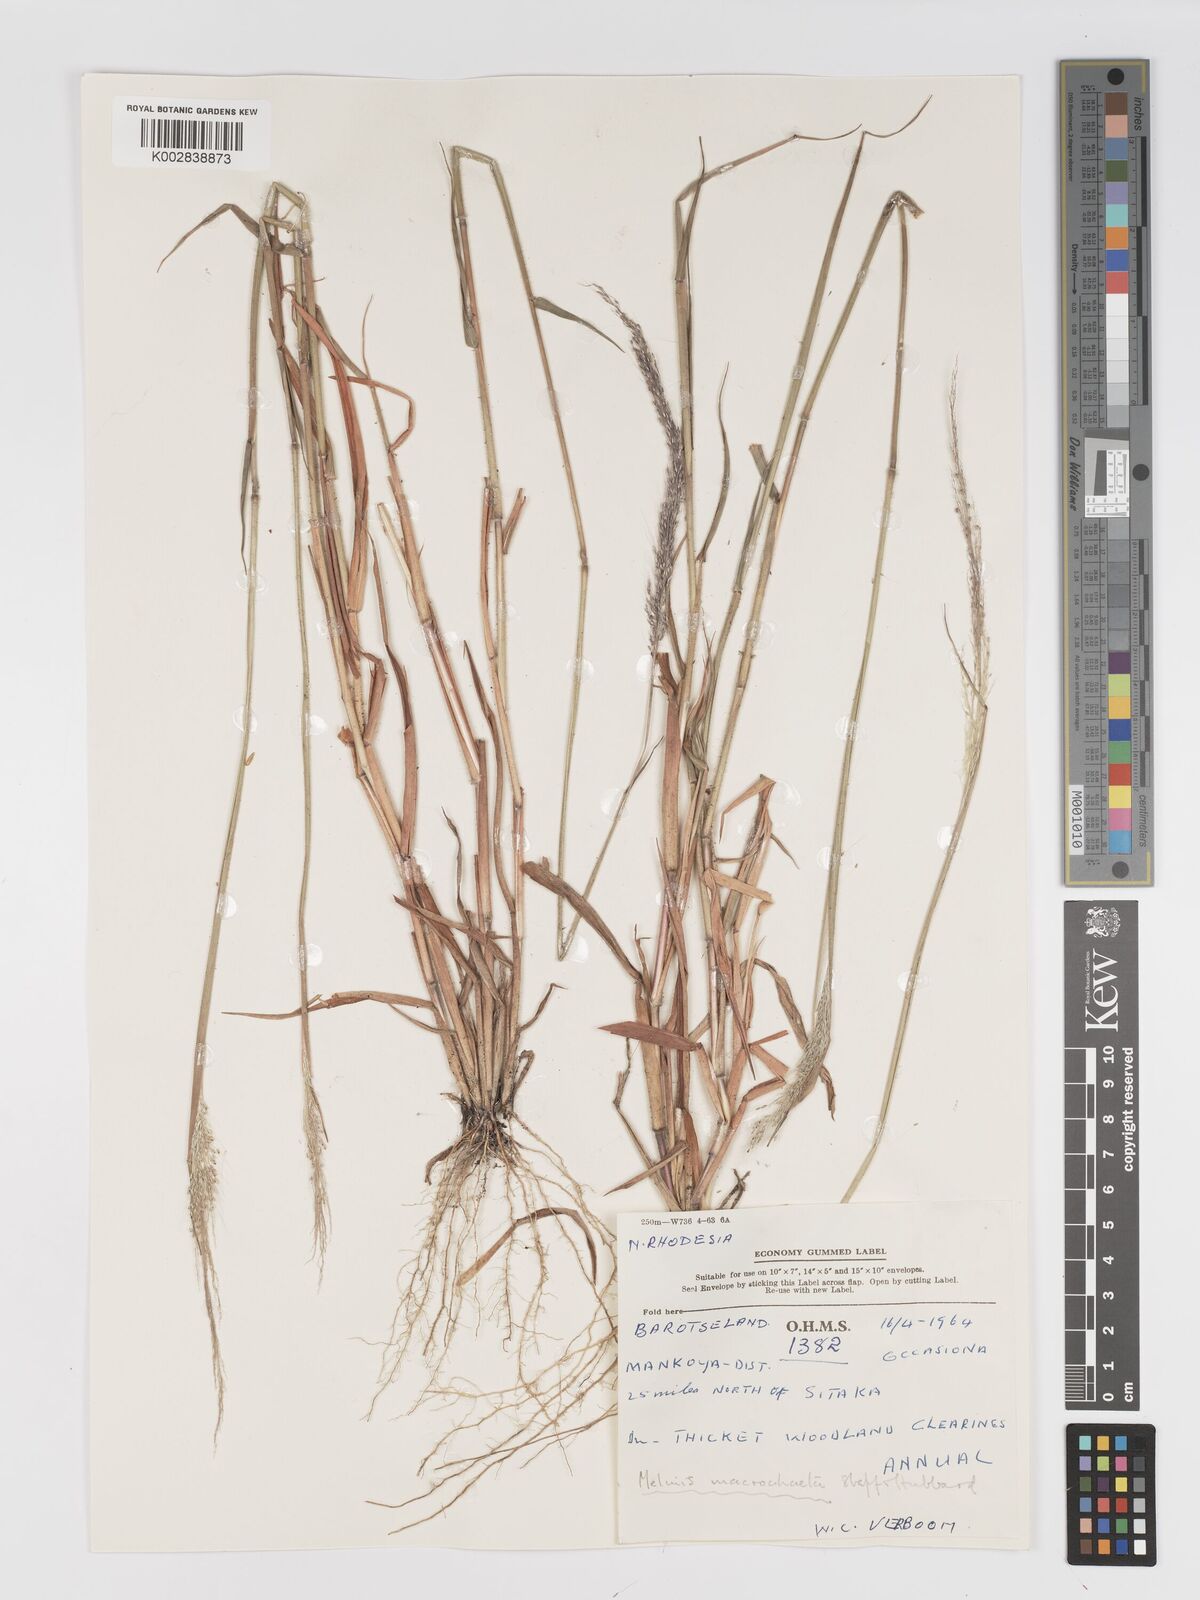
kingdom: Plantae
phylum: Tracheophyta
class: Liliopsida
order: Poales
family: Poaceae
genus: Melinis
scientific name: Melinis macrochaeta
